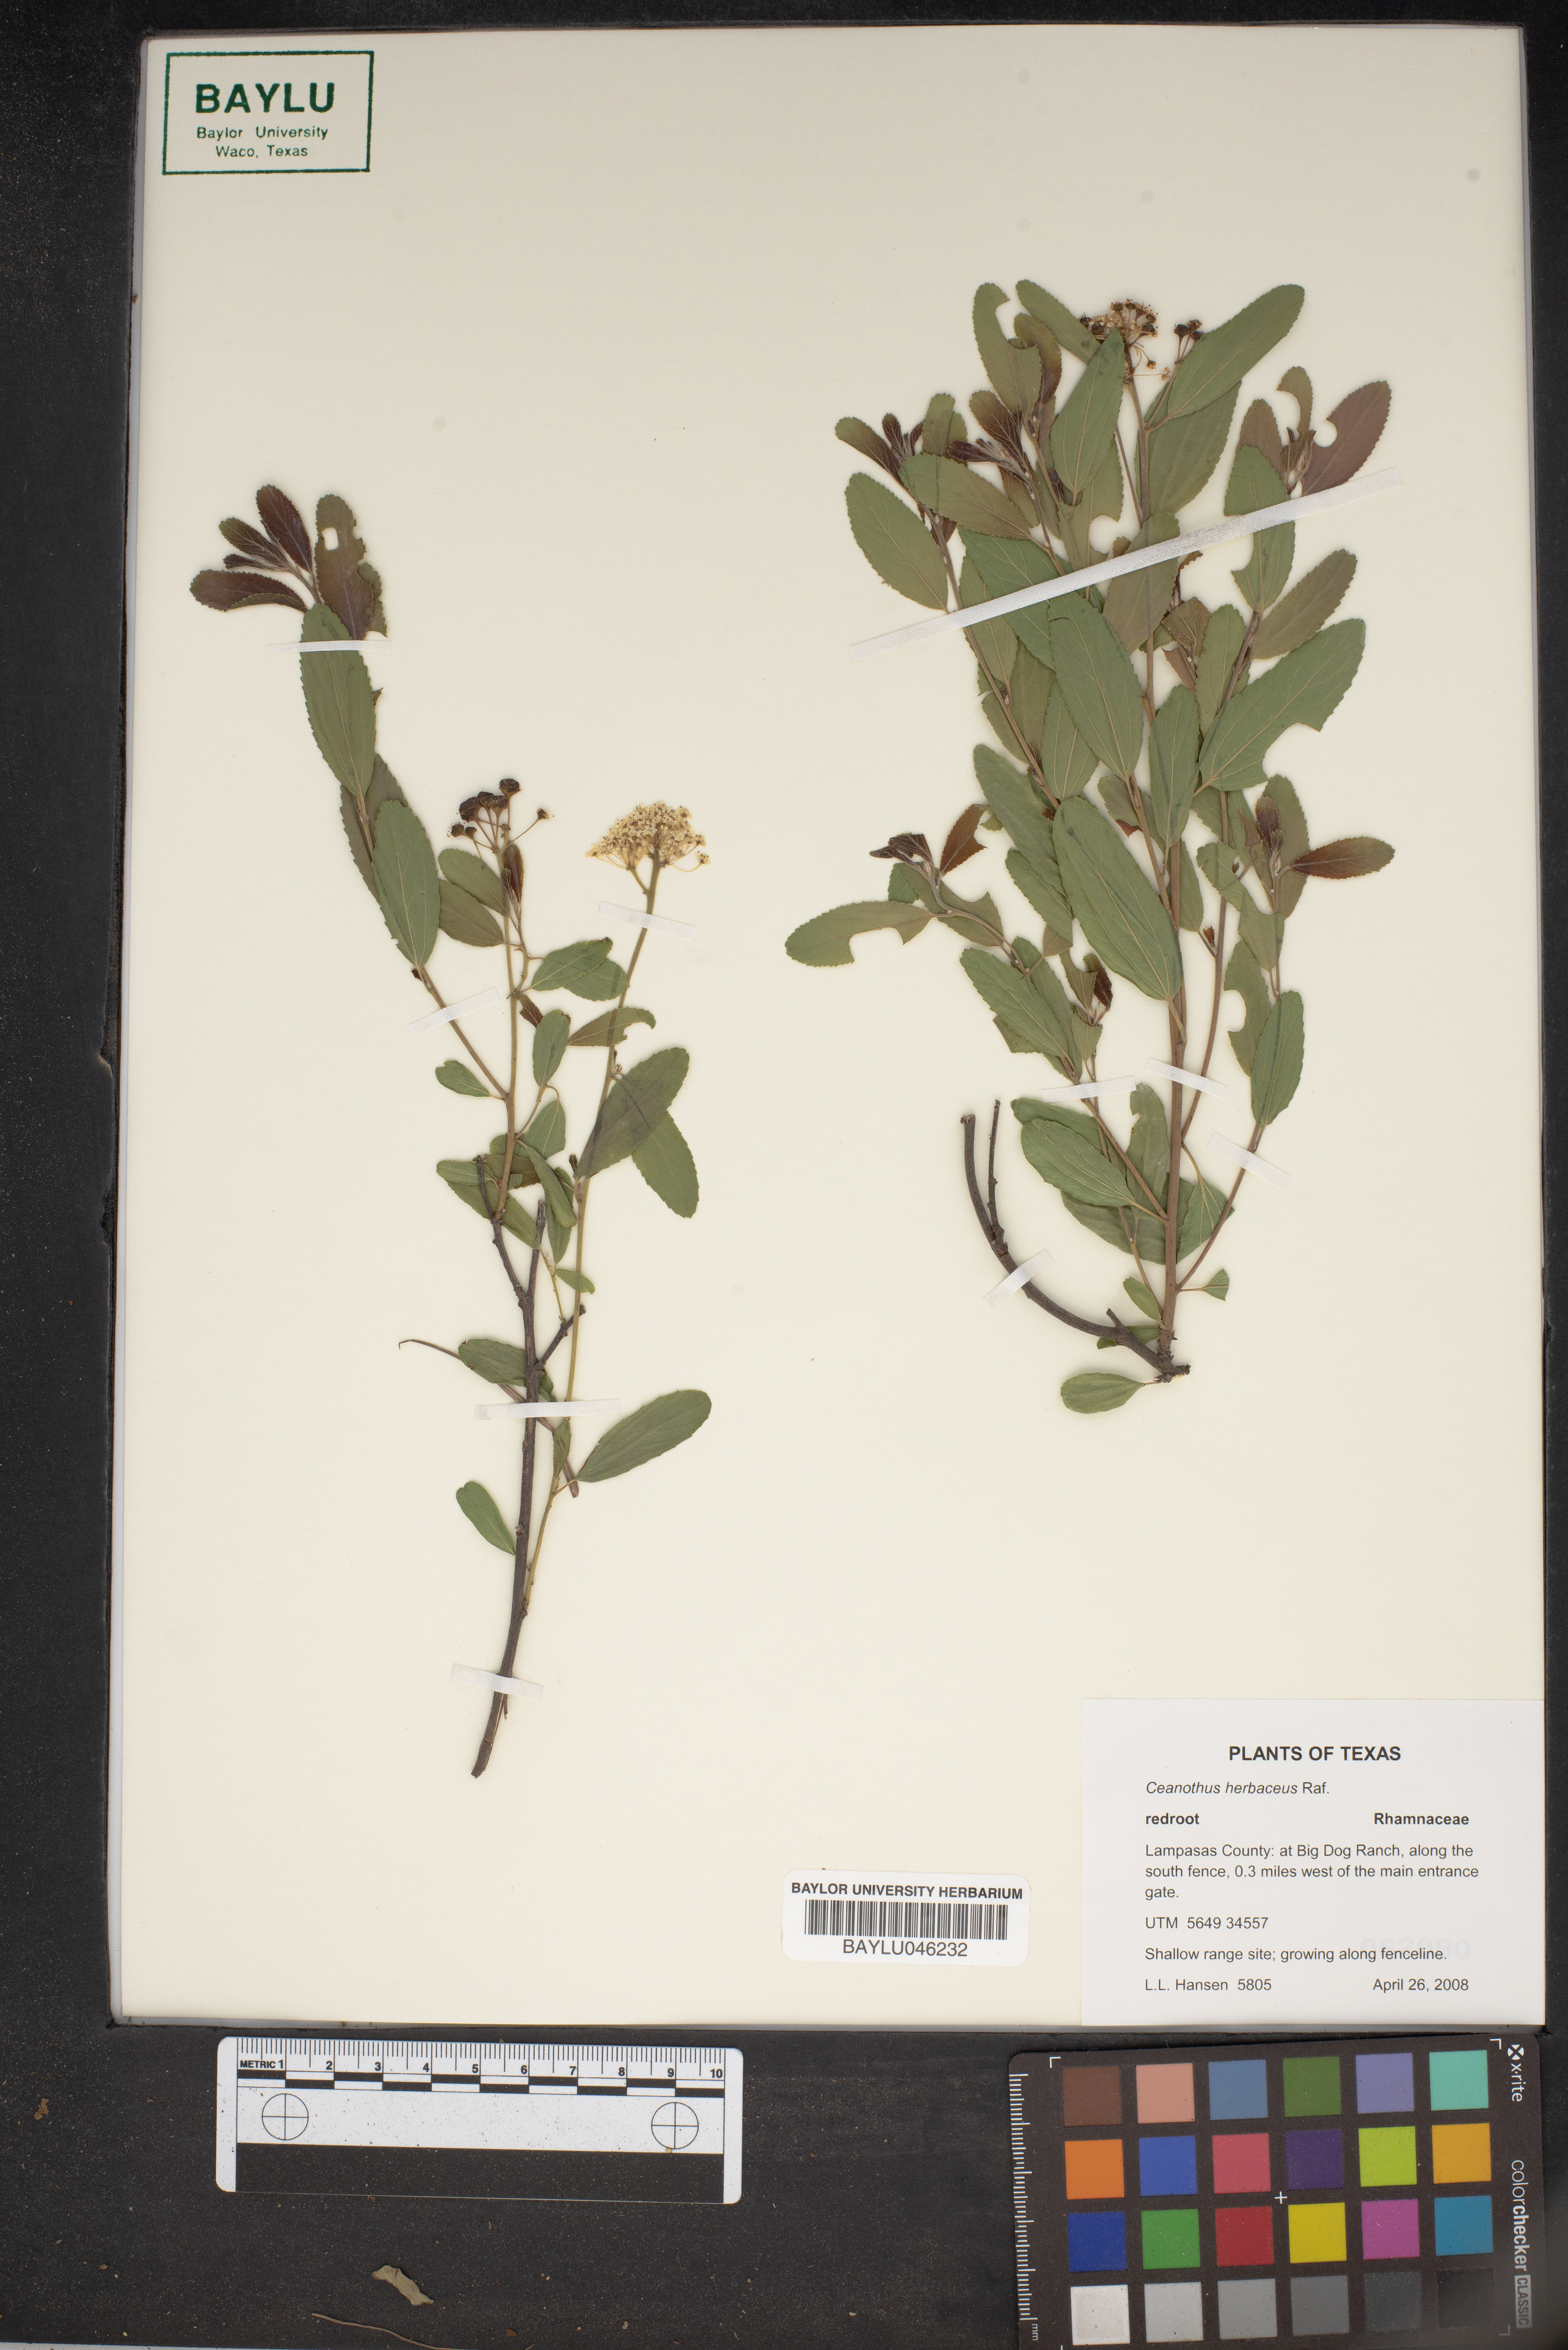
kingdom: Plantae
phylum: Tracheophyta
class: Magnoliopsida
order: Rosales
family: Rhamnaceae
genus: Ceanothus
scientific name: Ceanothus herbaceus
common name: Inland ceanothus
